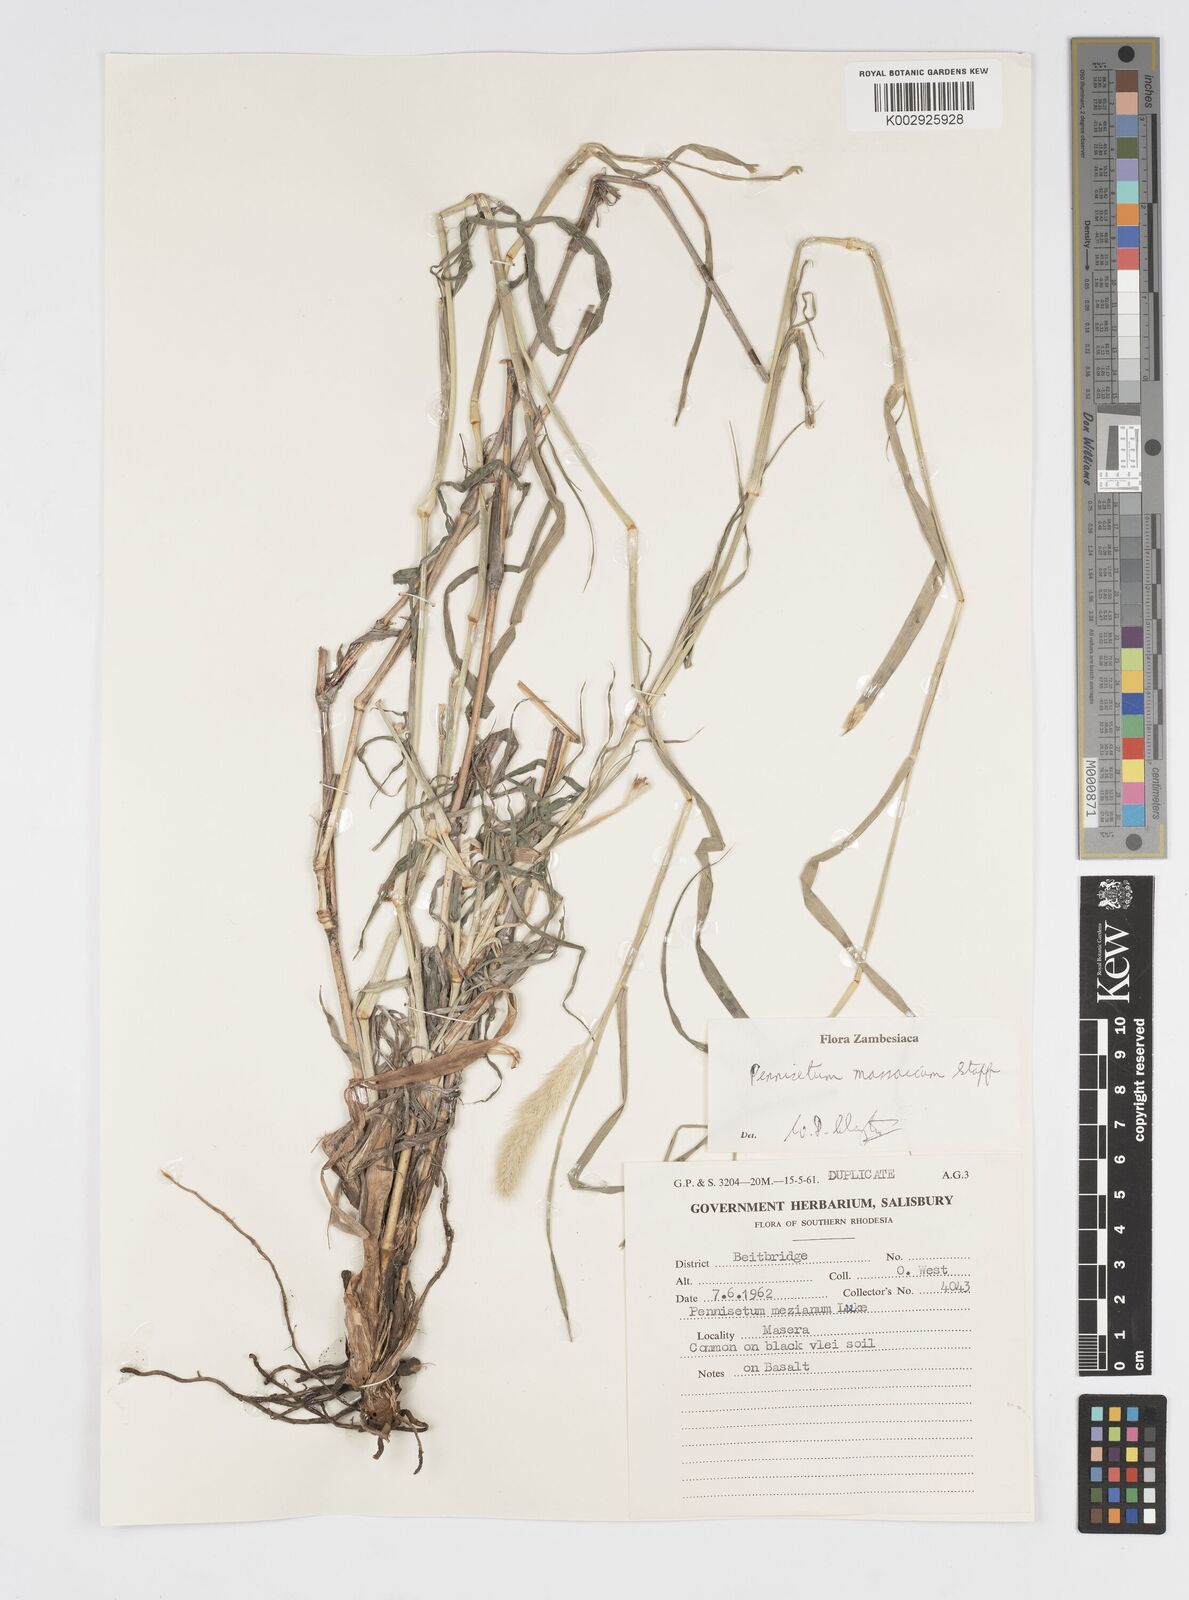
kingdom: Plantae
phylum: Tracheophyta
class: Liliopsida
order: Poales
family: Poaceae
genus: Cenchrus
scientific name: Cenchrus massaicus
